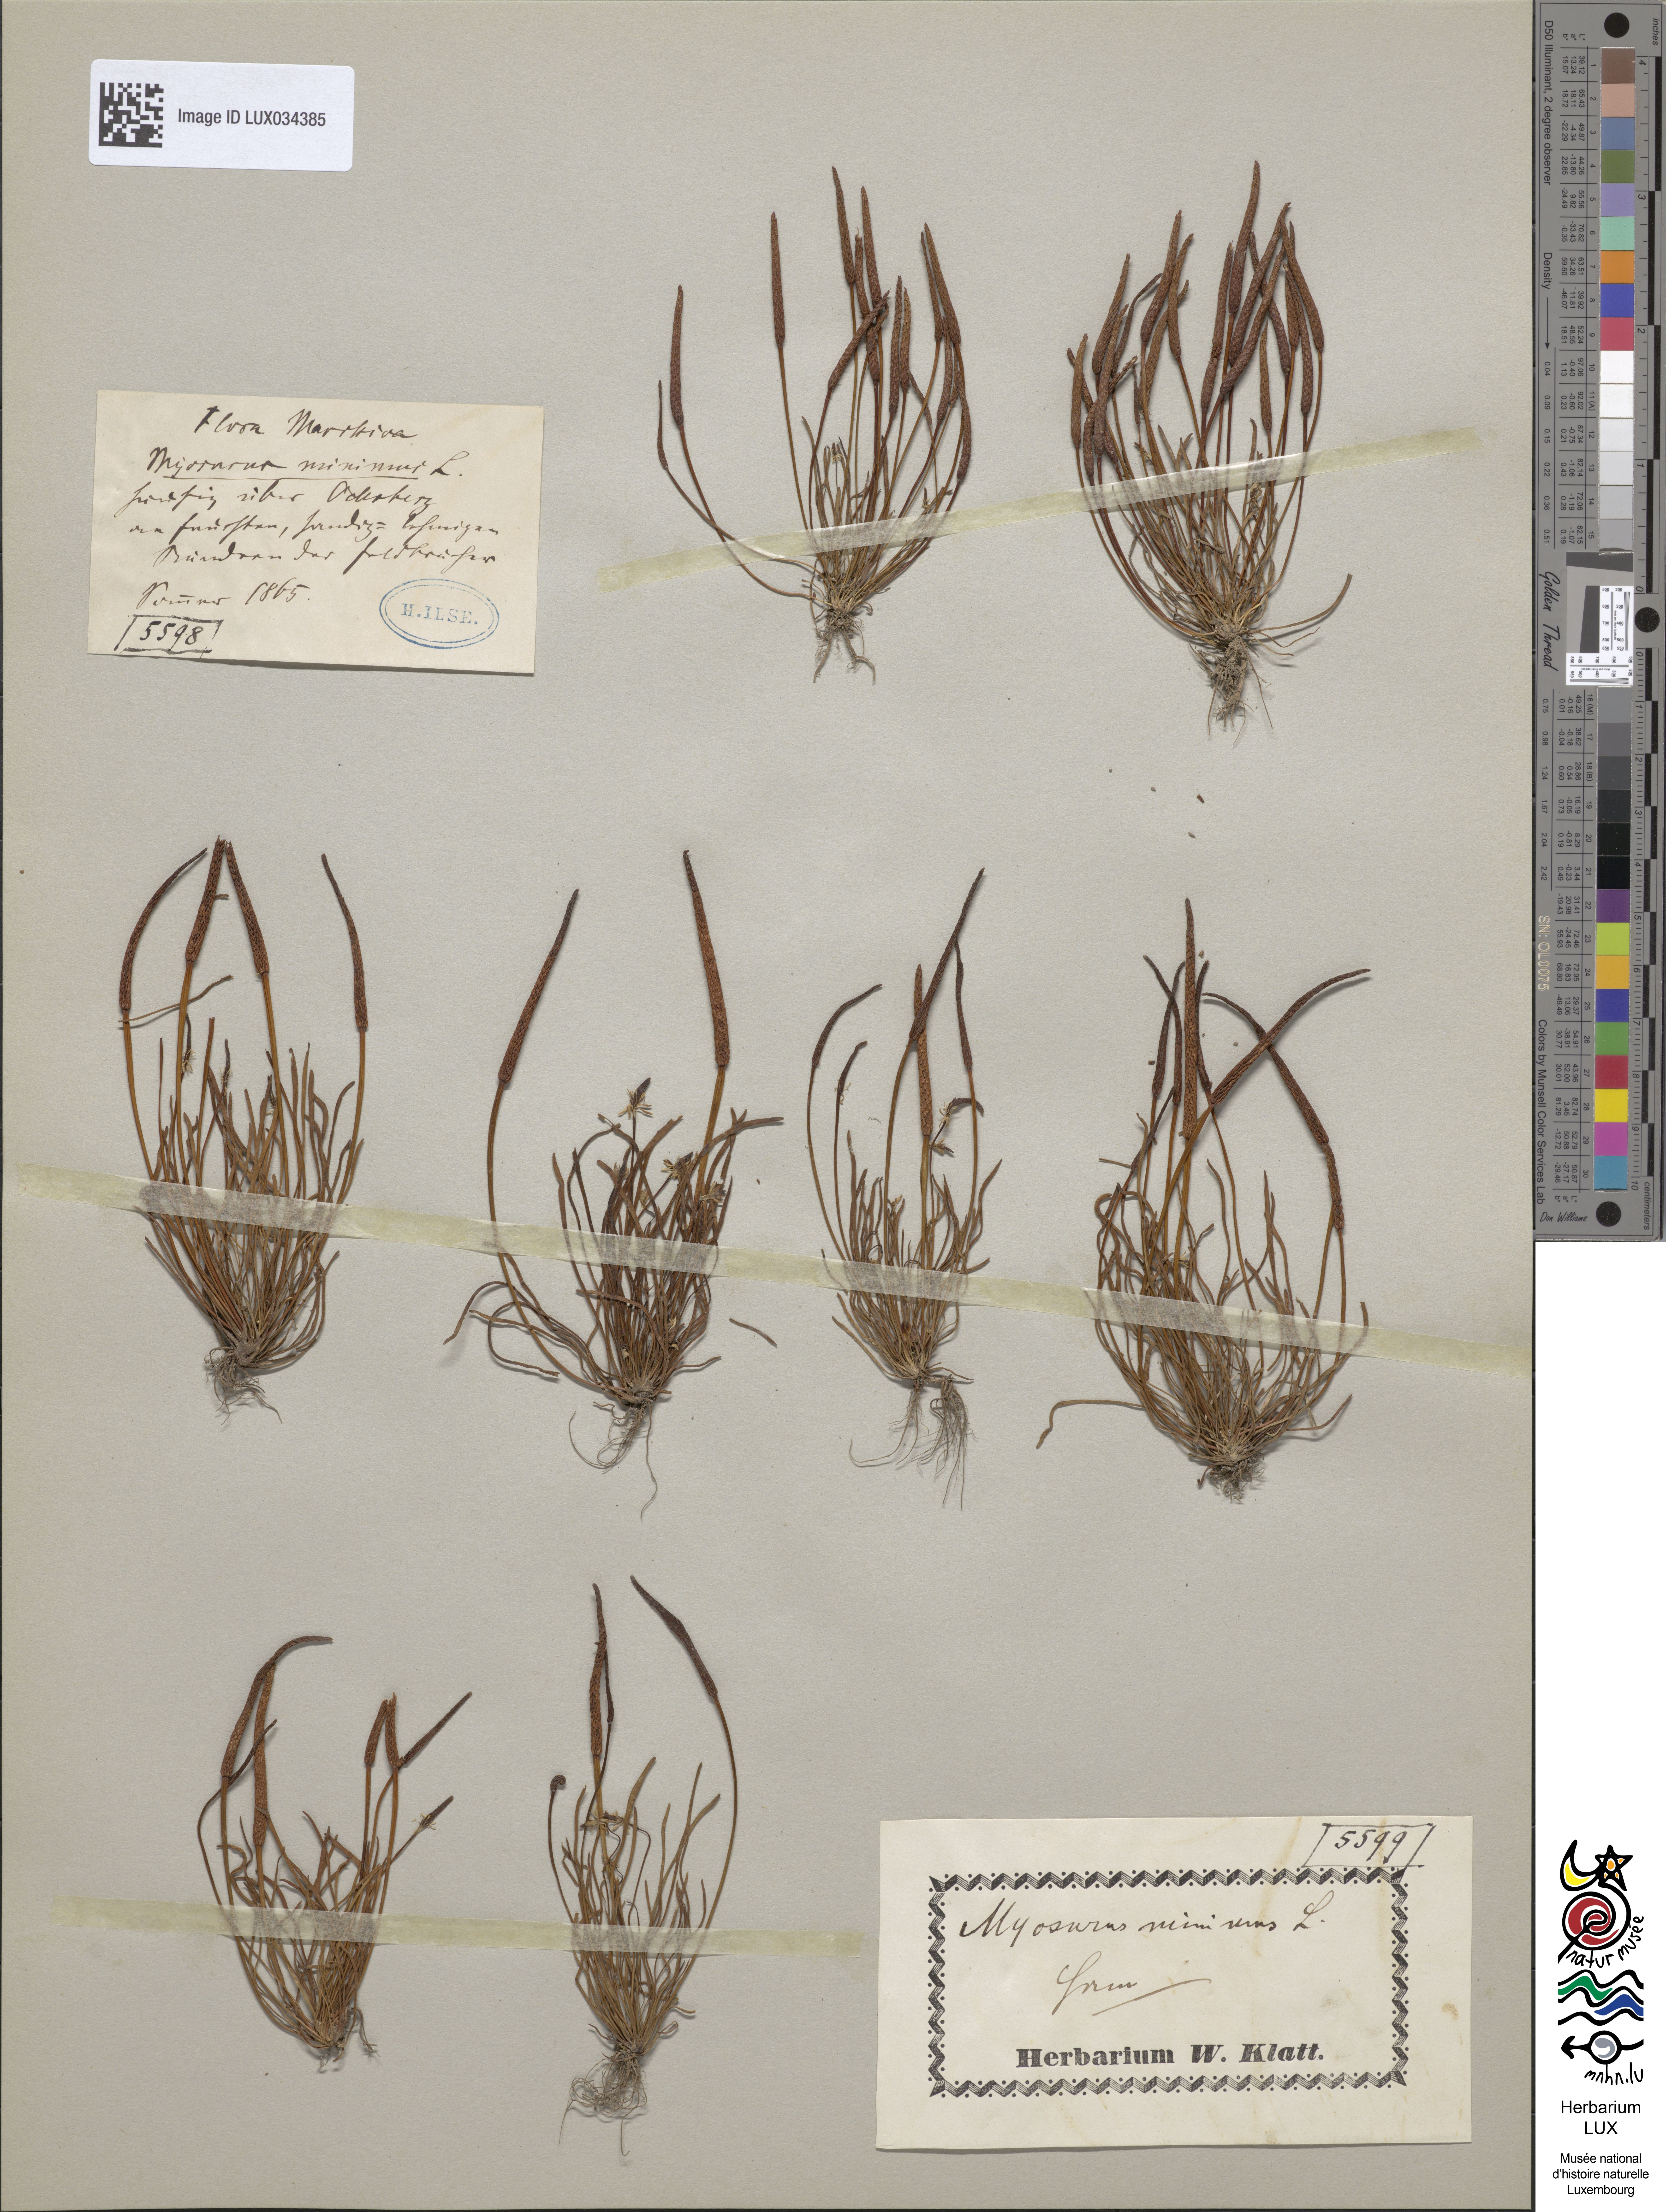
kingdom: Plantae
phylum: Tracheophyta
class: Magnoliopsida
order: Ranunculales
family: Ranunculaceae
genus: Myosurus
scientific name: Myosurus minimus
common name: Mousetail
